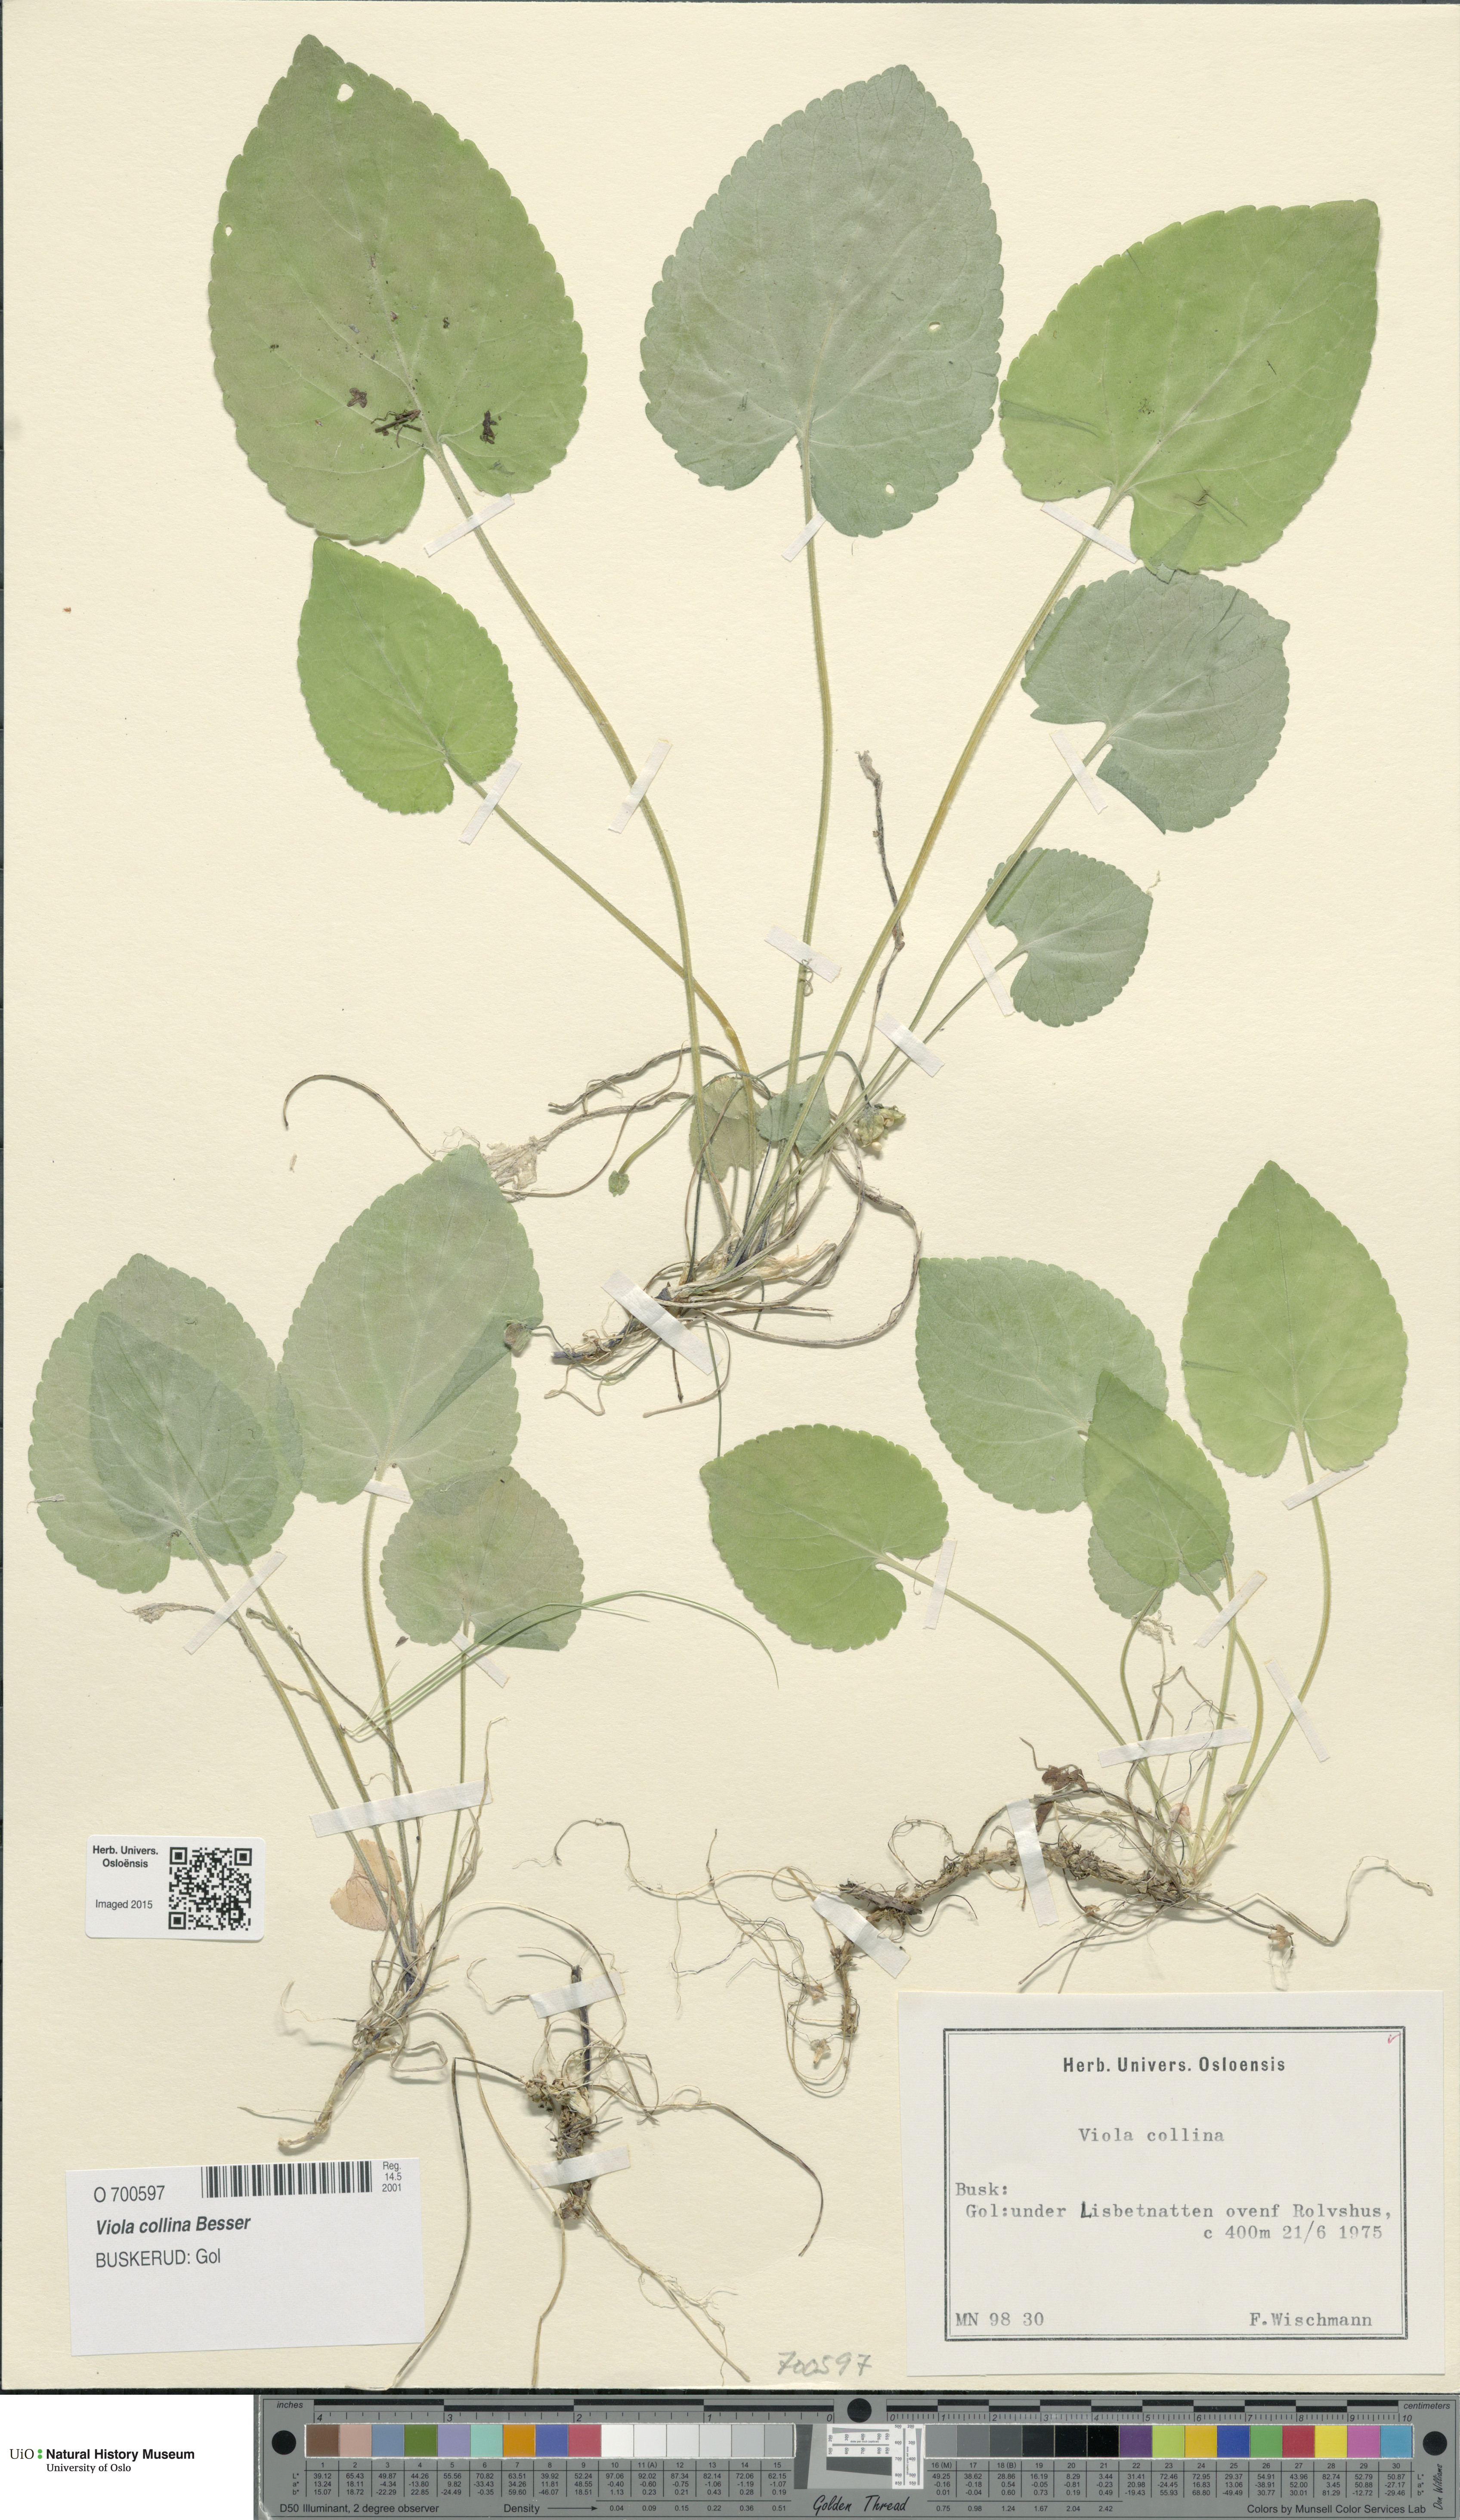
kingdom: Plantae
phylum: Tracheophyta
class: Magnoliopsida
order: Malpighiales
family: Violaceae
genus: Viola
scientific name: Viola collina
